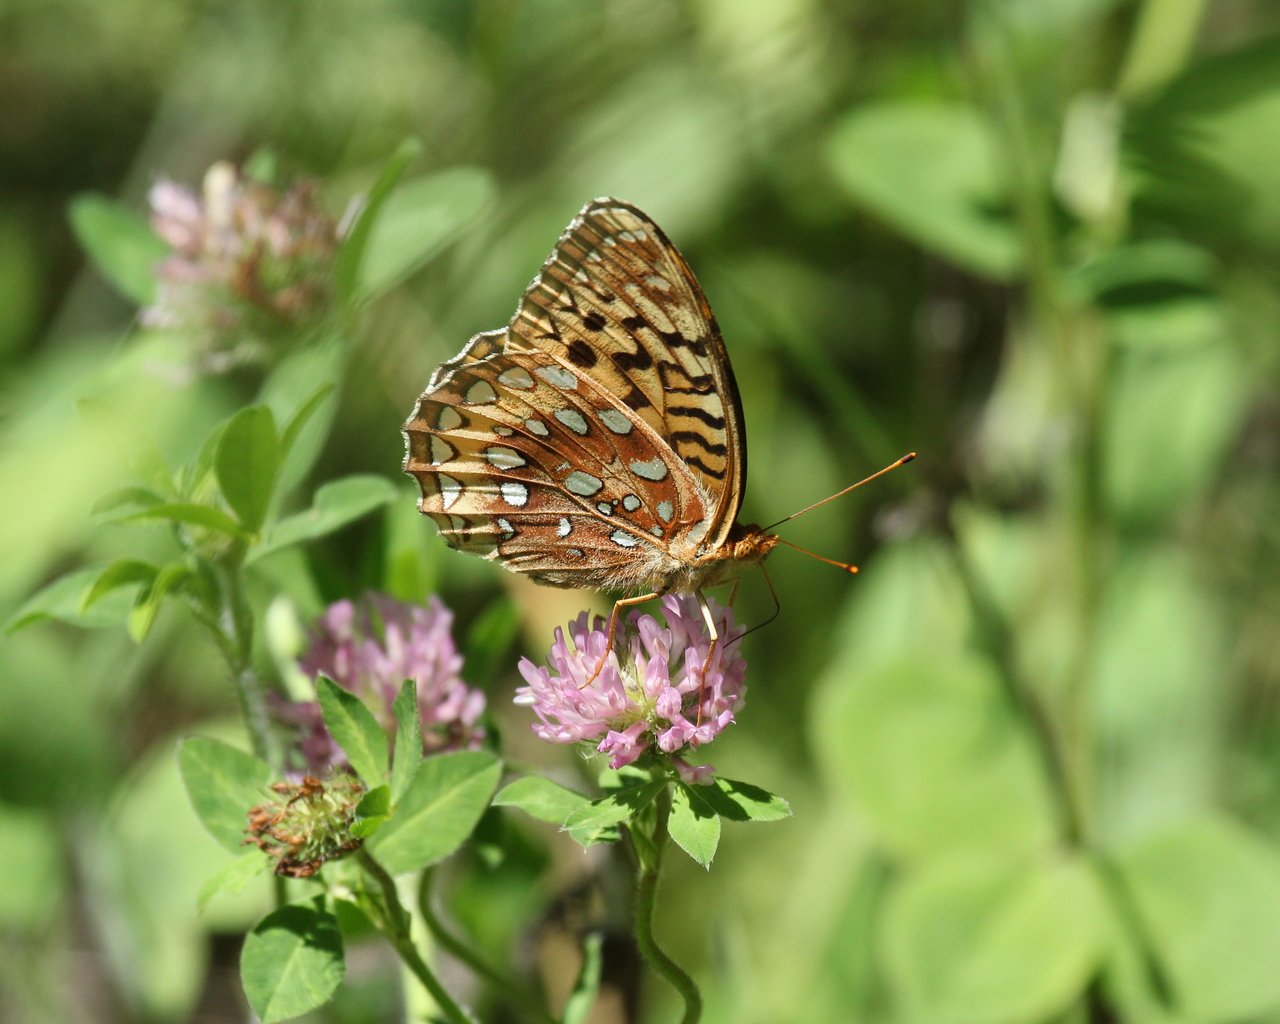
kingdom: Animalia
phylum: Arthropoda
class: Insecta
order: Lepidoptera
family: Nymphalidae
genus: Speyeria
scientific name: Speyeria cybele
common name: Great Spangled Fritillary
